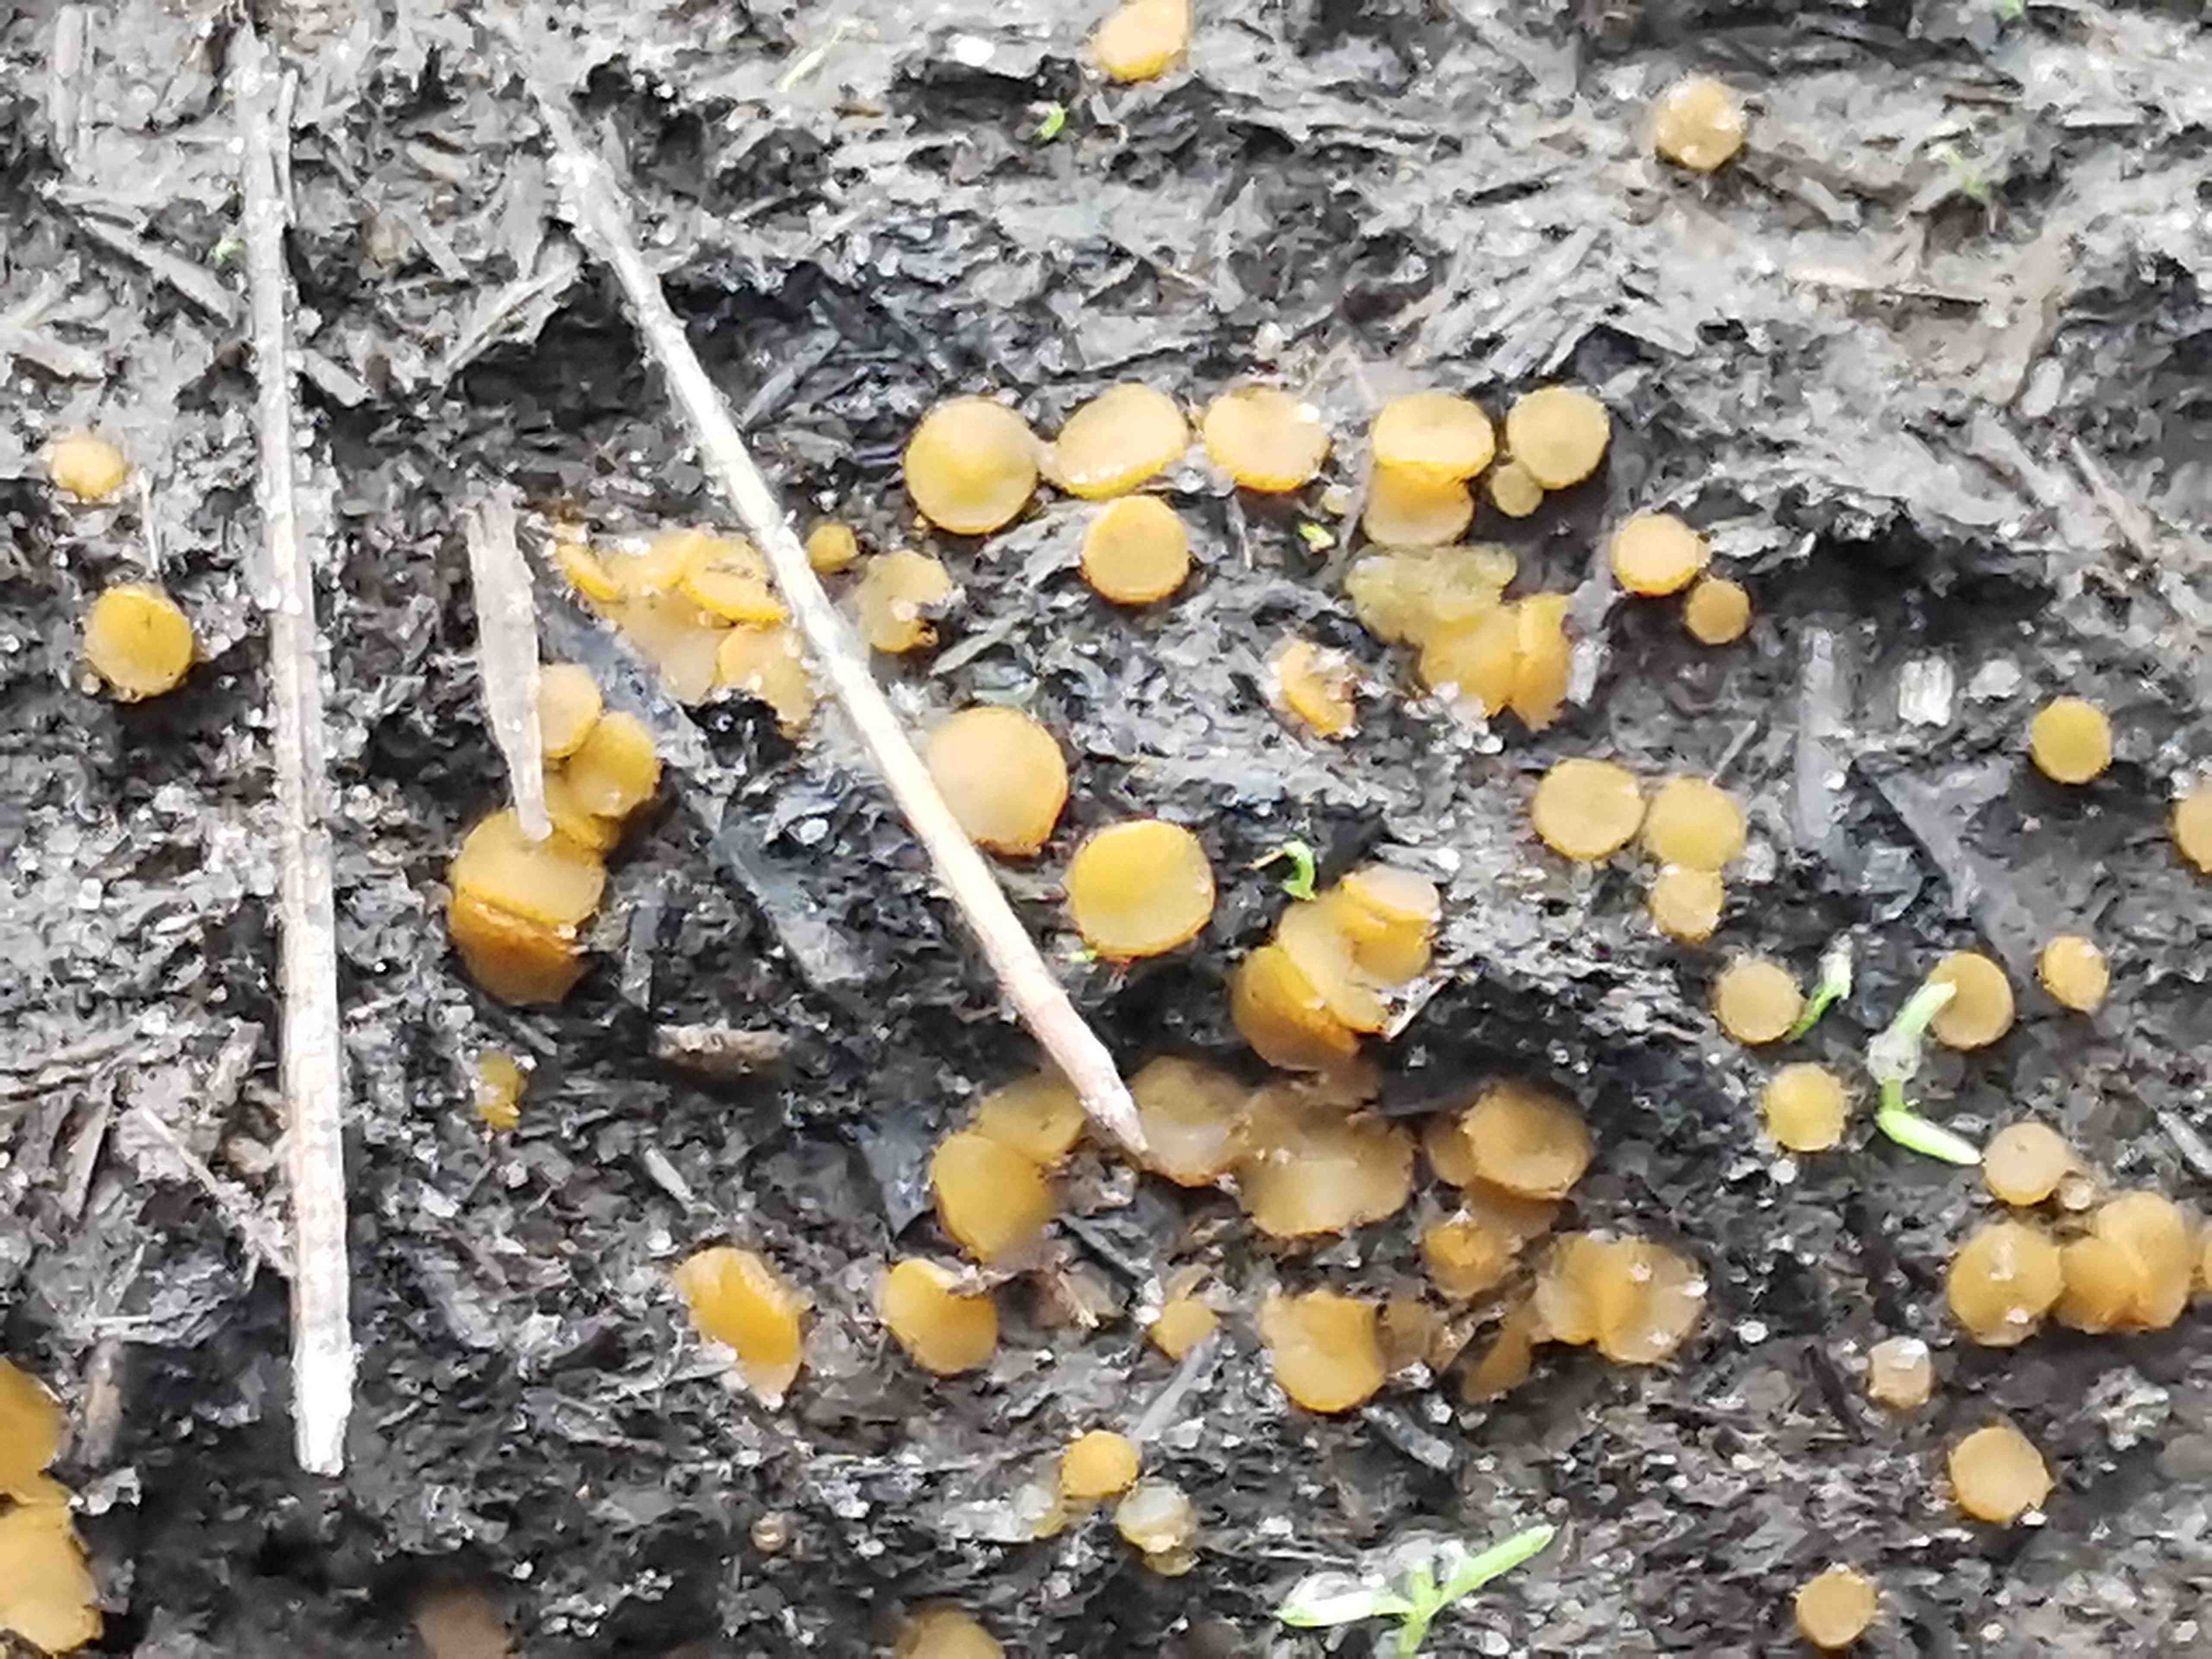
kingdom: Fungi
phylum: Ascomycota
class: Pezizomycetes
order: Pezizales
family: Pyronemataceae
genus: Cheilymenia
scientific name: Cheilymenia granulata
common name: møgbæger
